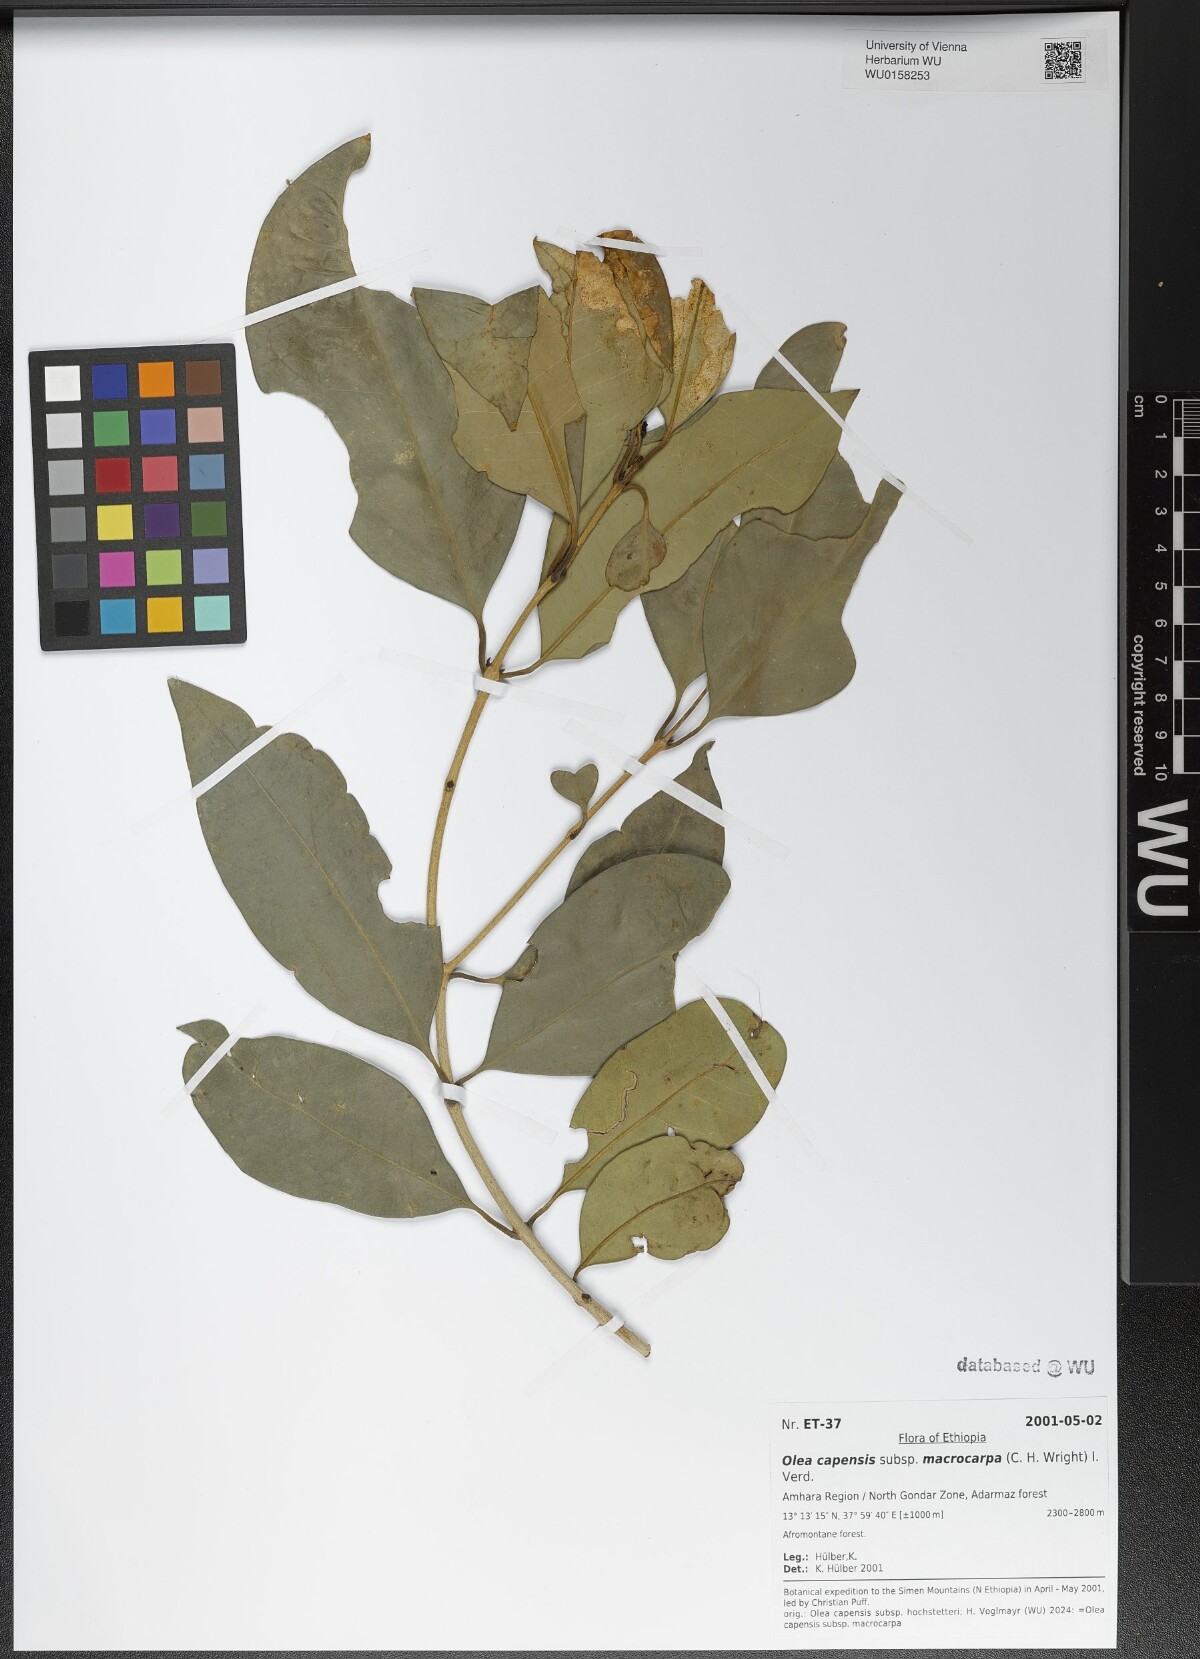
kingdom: Plantae
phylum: Tracheophyta
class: Magnoliopsida
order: Lamiales
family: Oleaceae
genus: Olea
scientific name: Olea capensis
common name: Black ironwood
